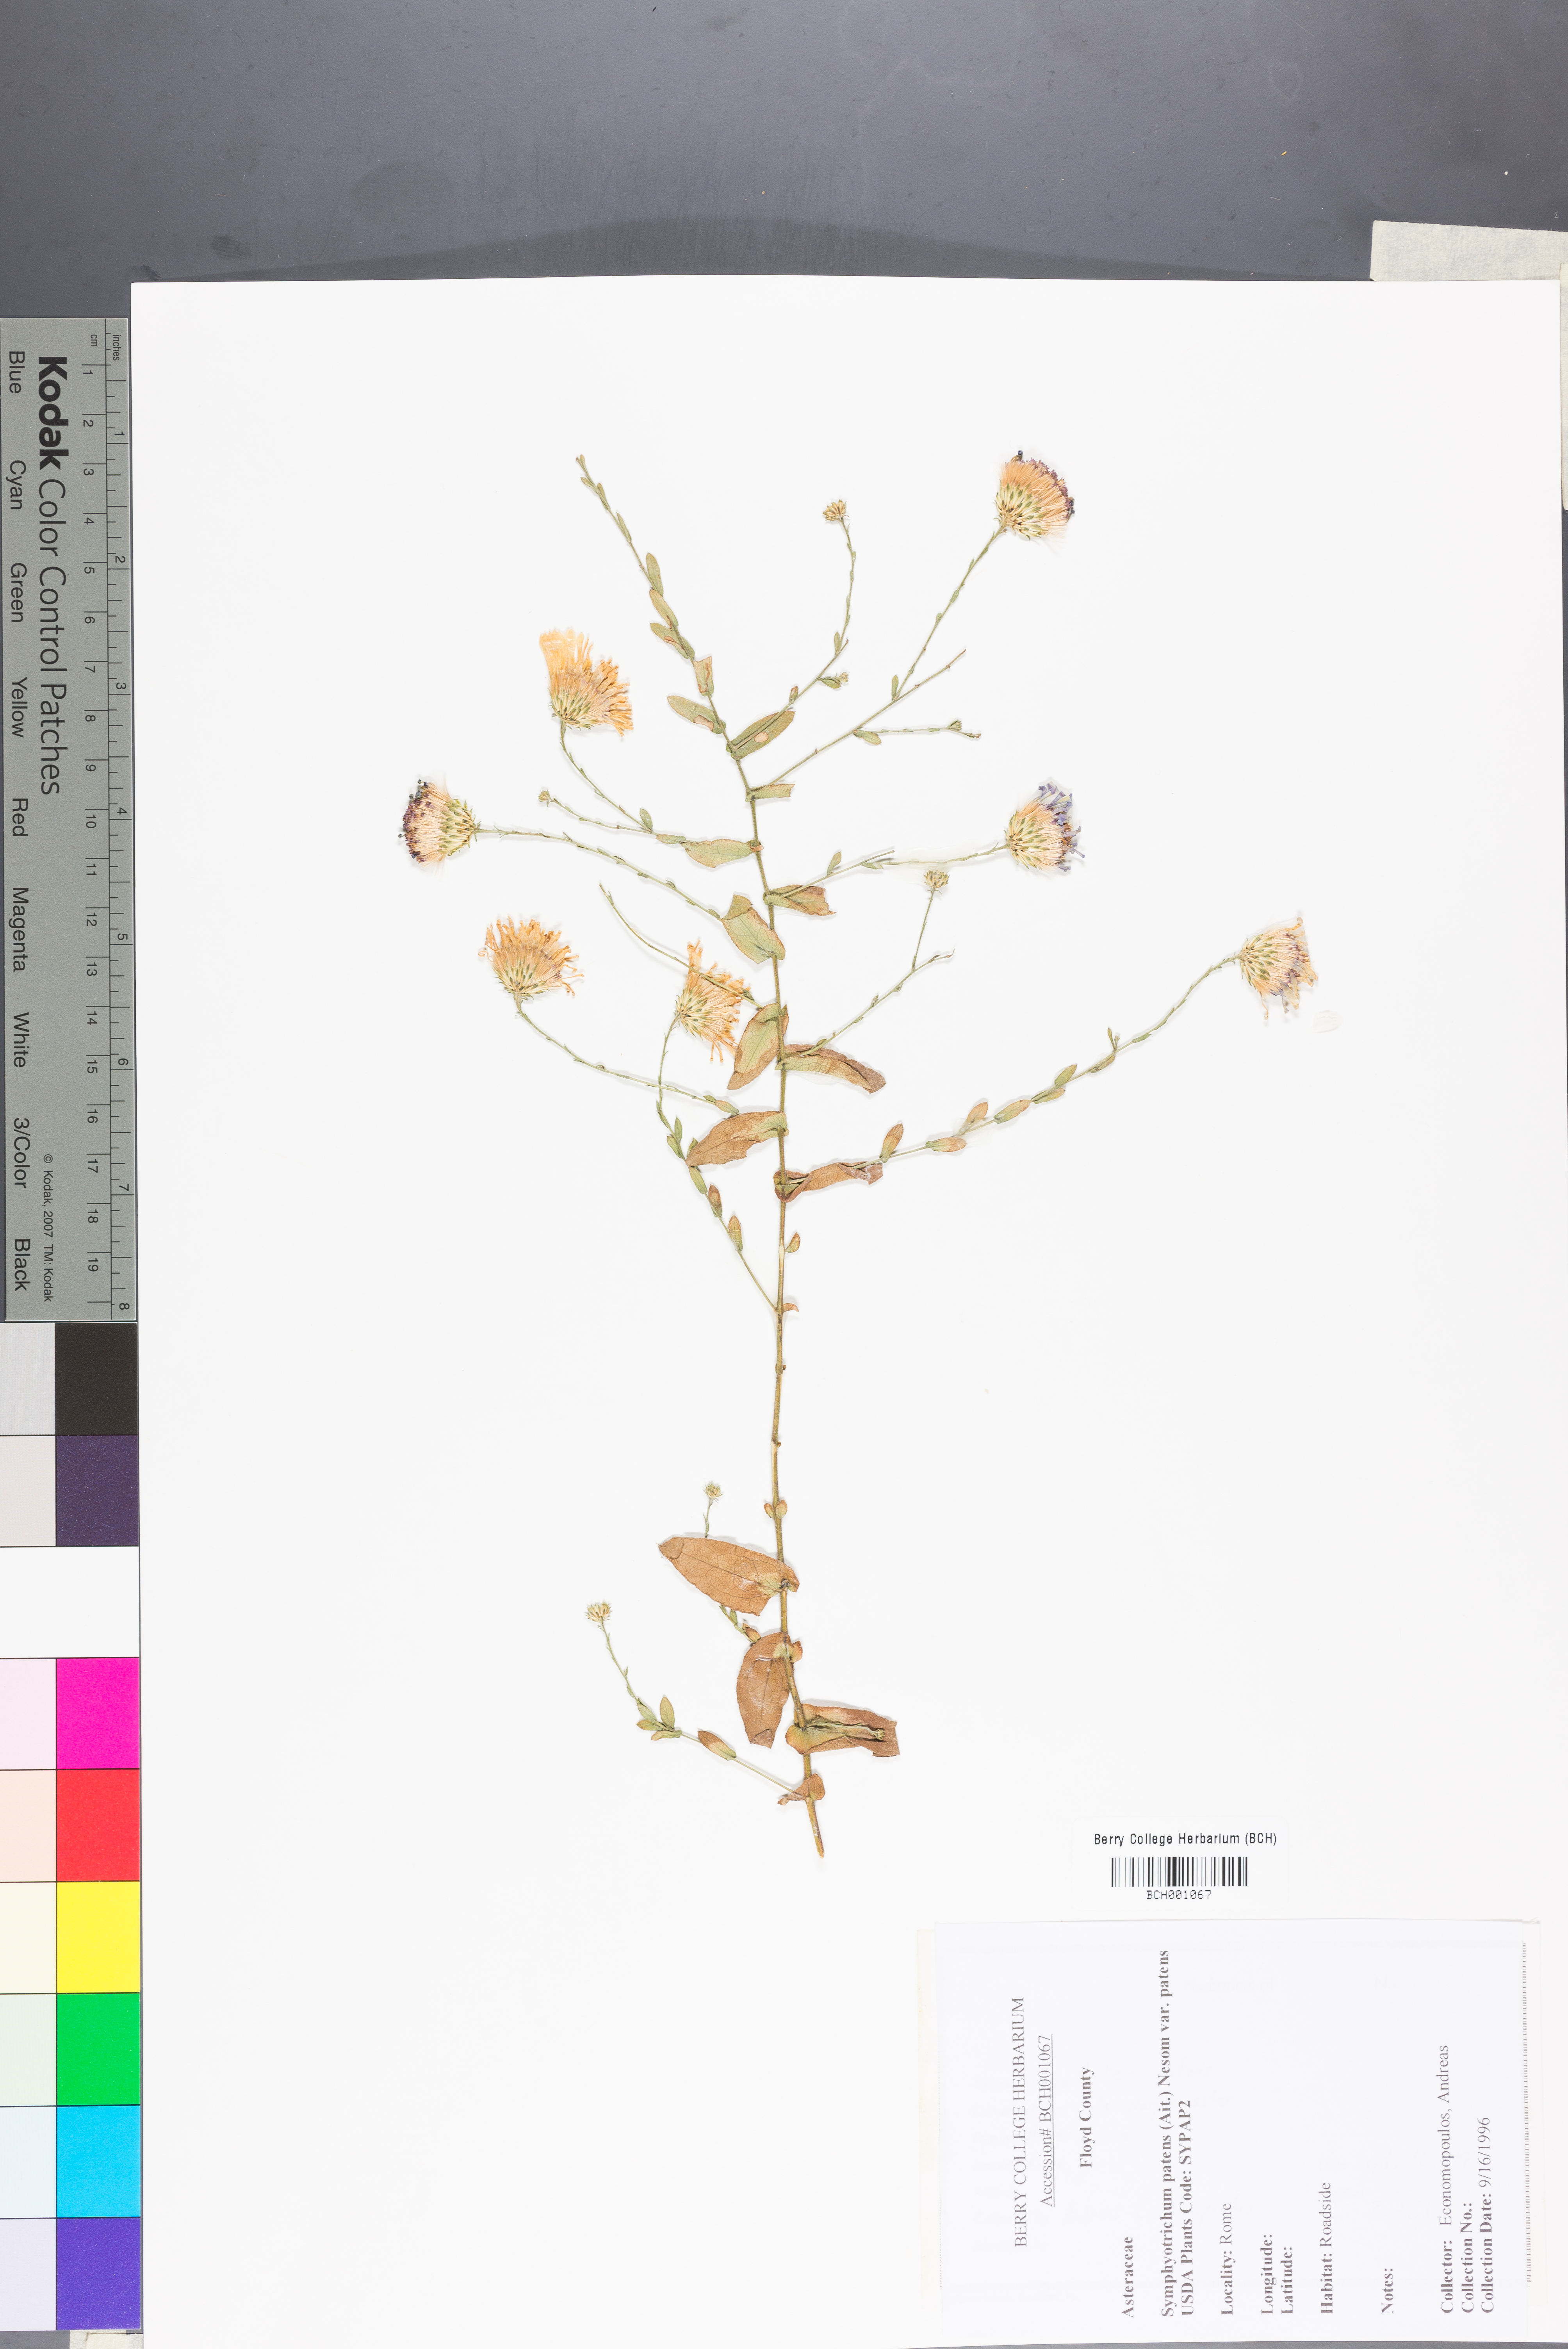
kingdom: Plantae
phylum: Tracheophyta
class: Magnoliopsida
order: Asterales
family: Asteraceae
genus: Symphyotrichum
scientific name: Symphyotrichum patens
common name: Late purple aster
